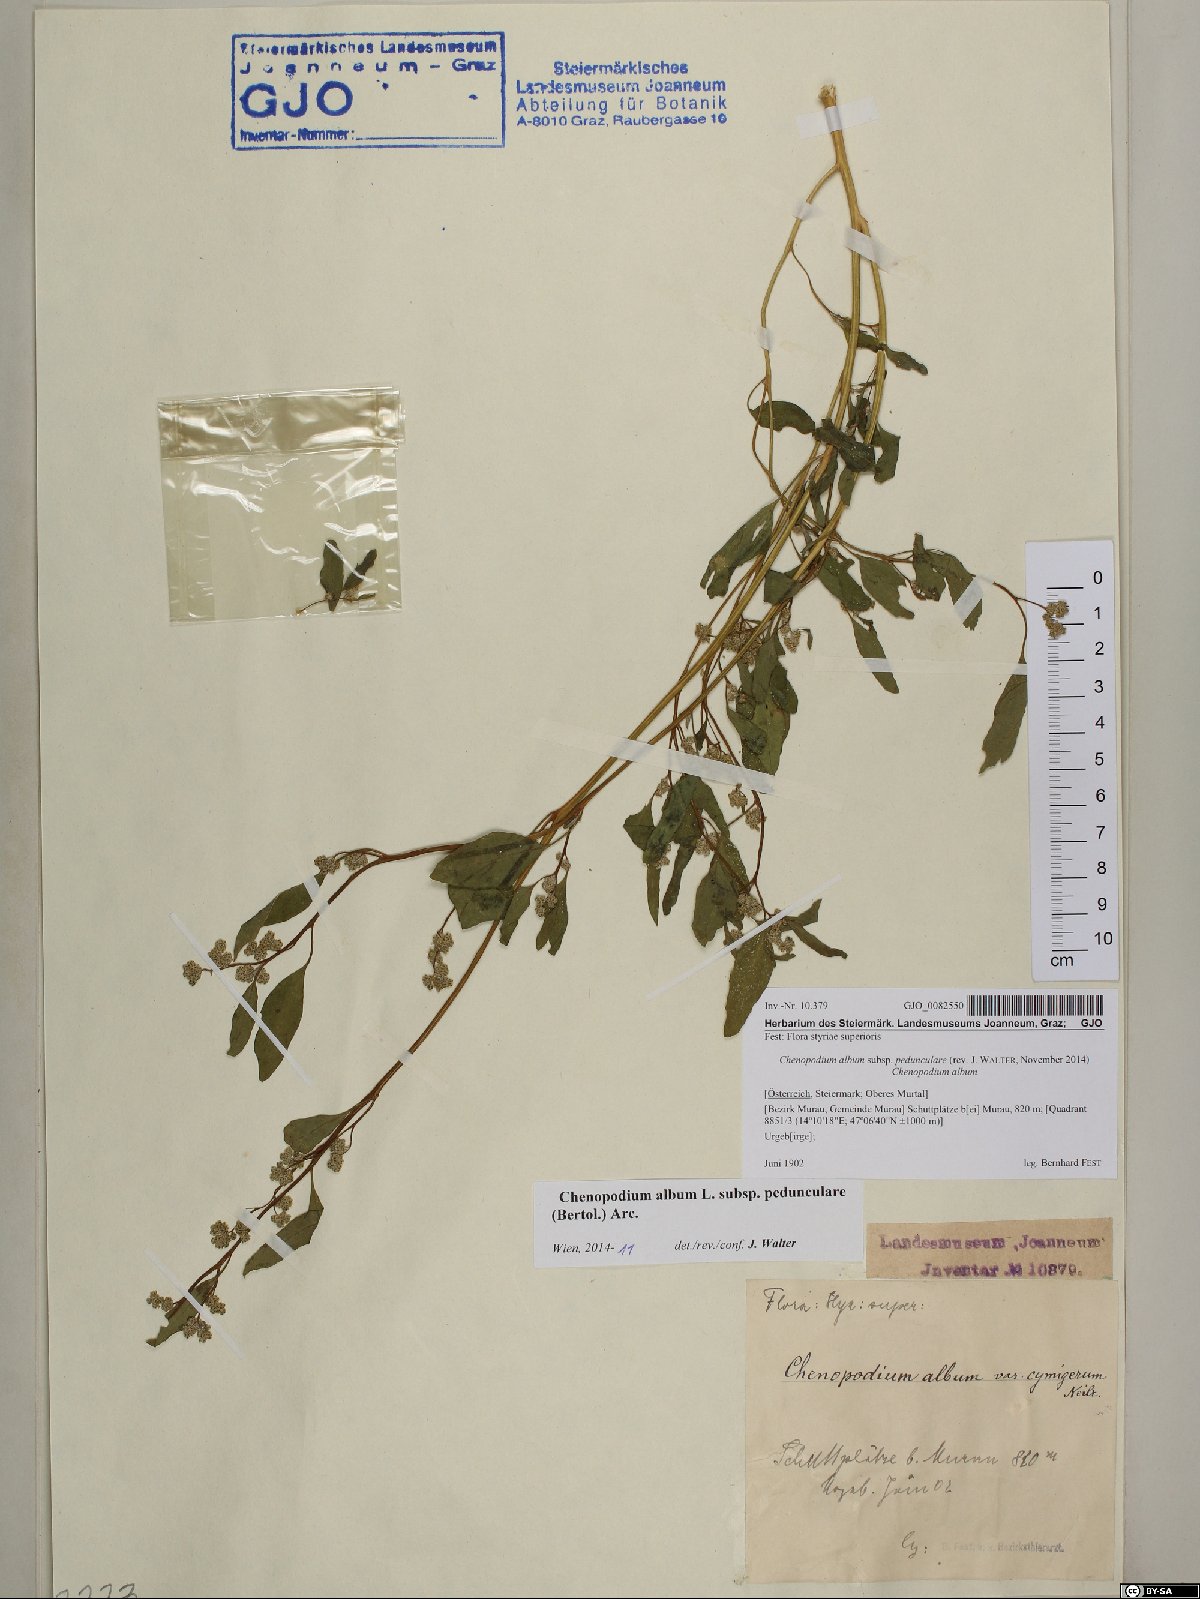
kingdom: Plantae
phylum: Tracheophyta
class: Magnoliopsida
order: Caryophyllales
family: Amaranthaceae
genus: Chenopodium
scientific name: Chenopodium album
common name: Fat-hen
